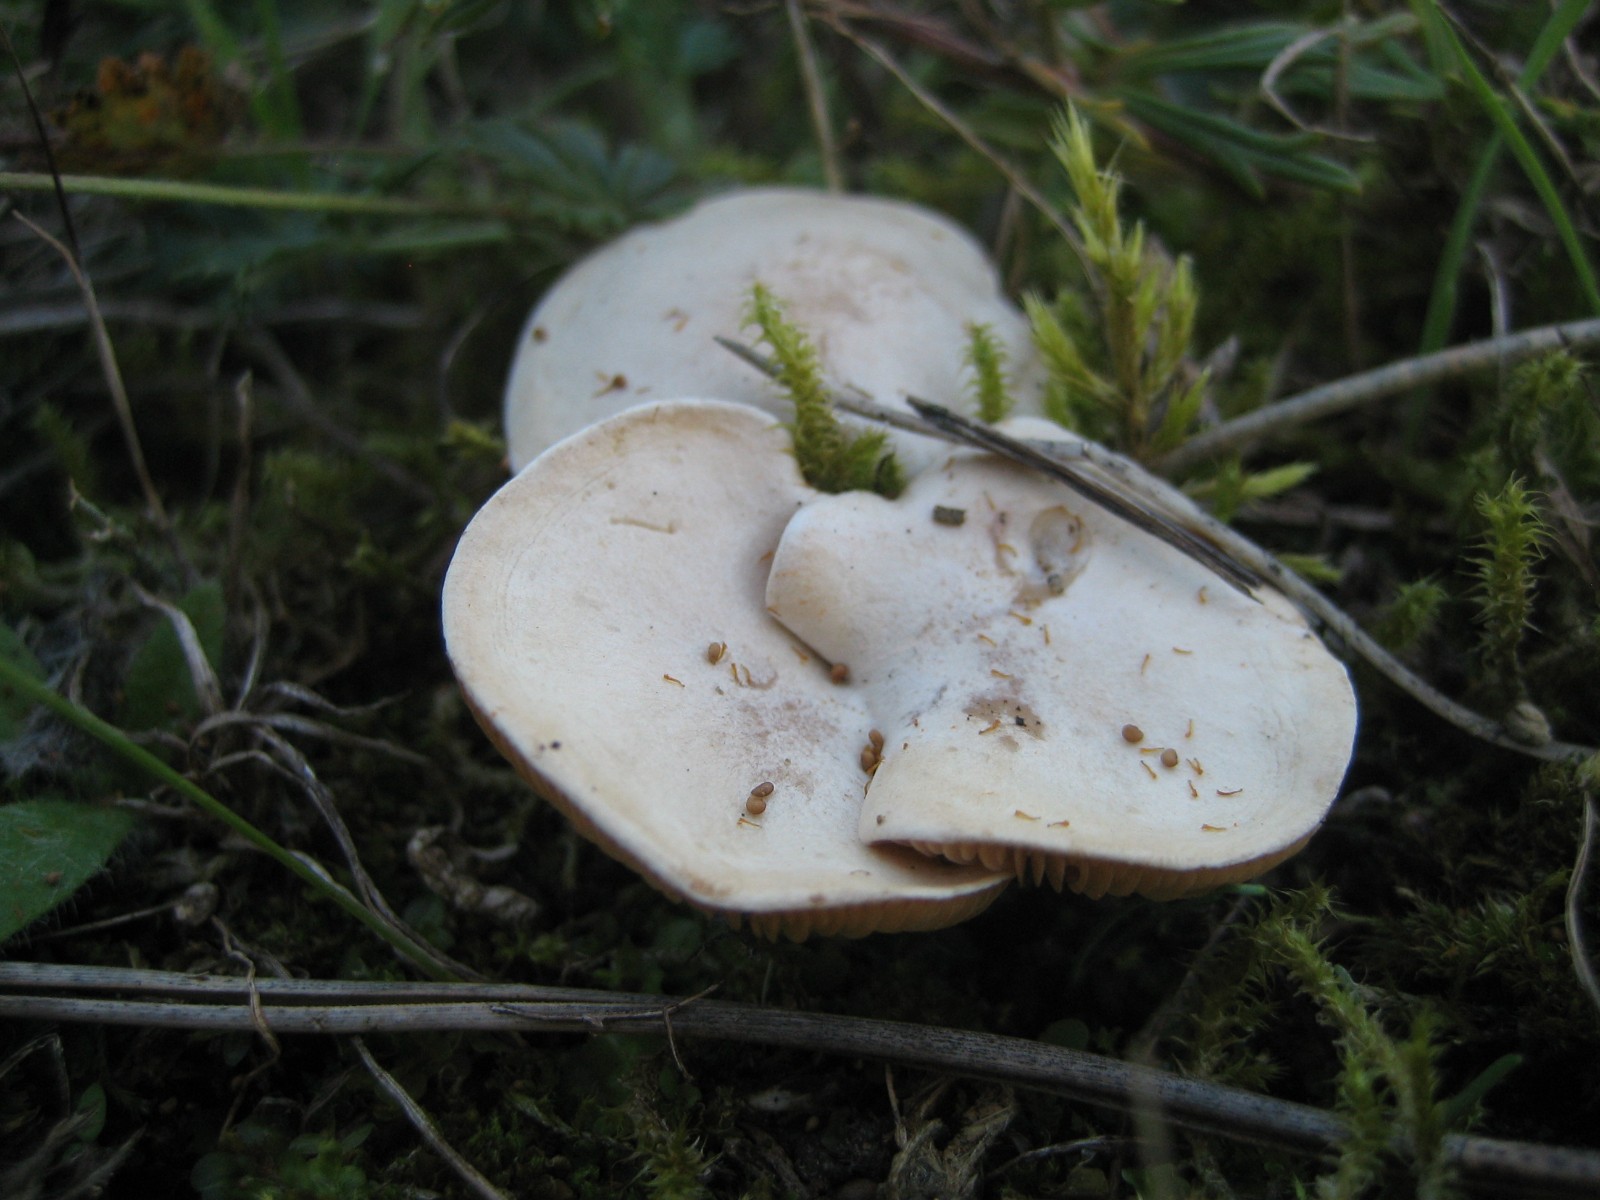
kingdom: Fungi
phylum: Basidiomycota
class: Agaricomycetes
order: Agaricales
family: Tricholomataceae
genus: Clitocybe
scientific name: Clitocybe
